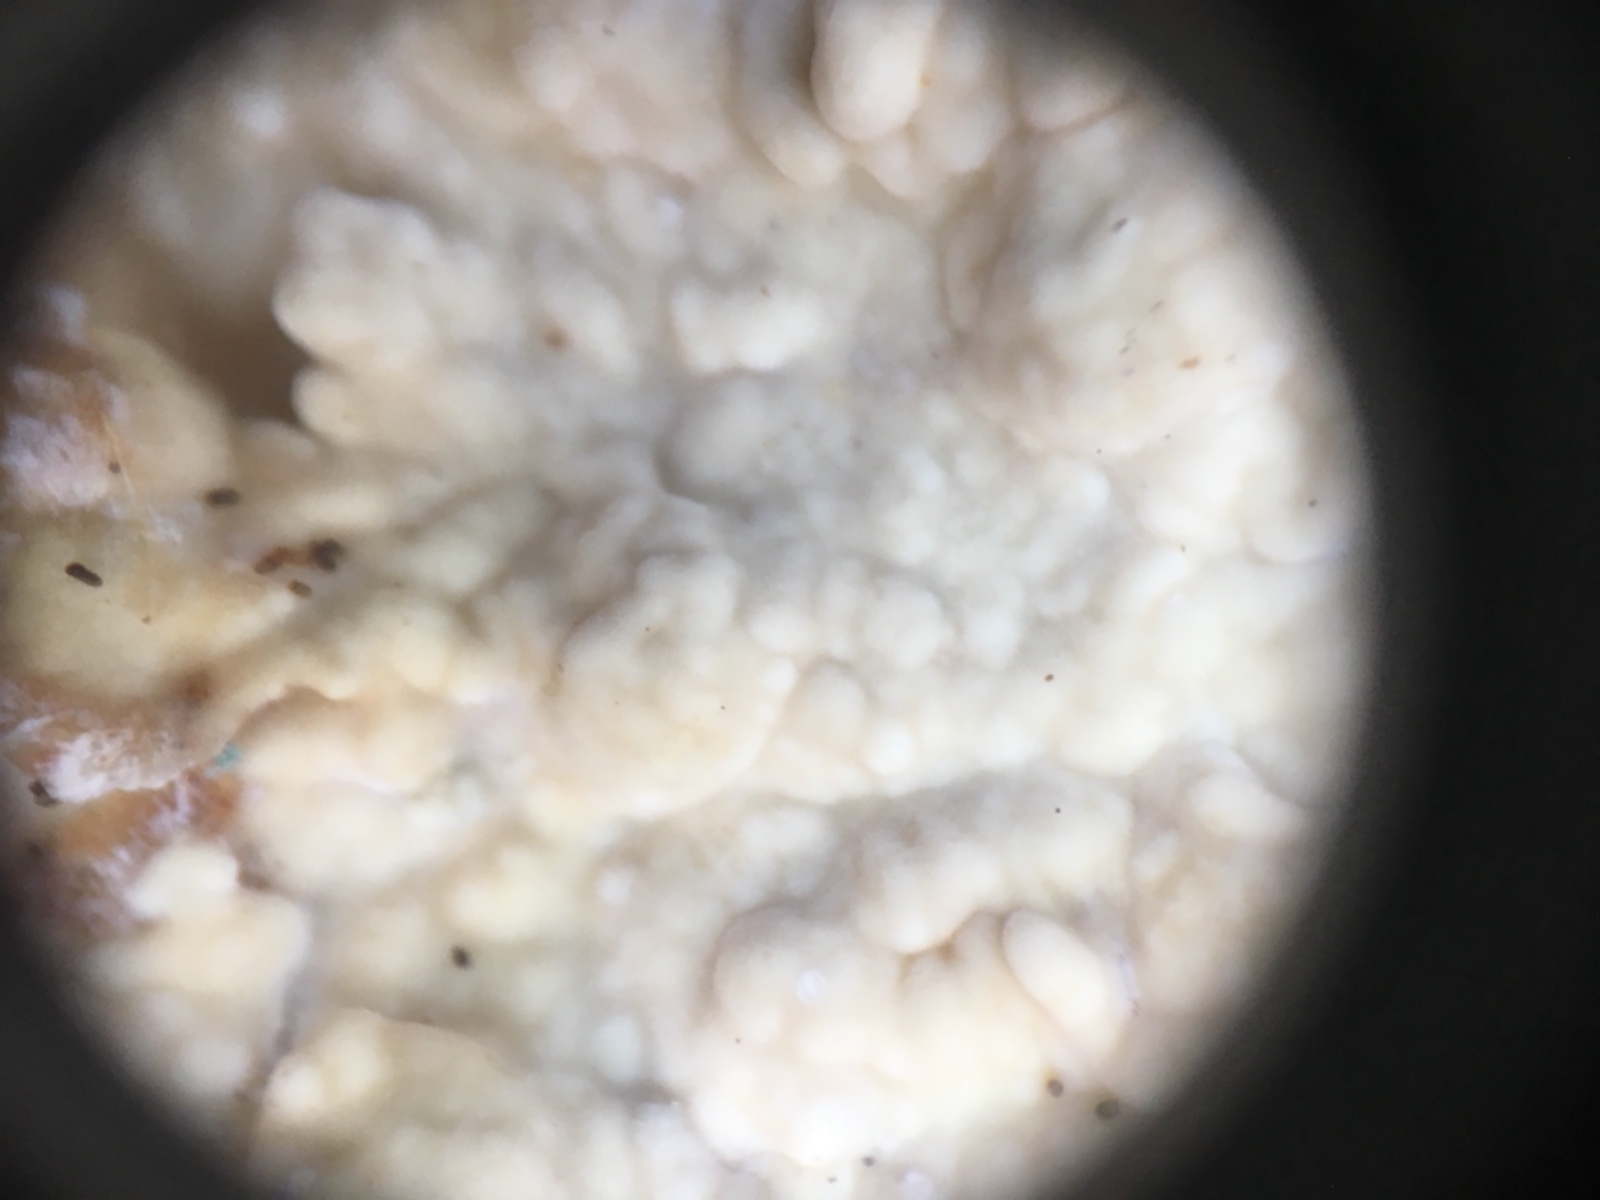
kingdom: Fungi
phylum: Basidiomycota
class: Agaricomycetes
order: Corticiales
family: Corticiaceae
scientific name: Corticiaceae
